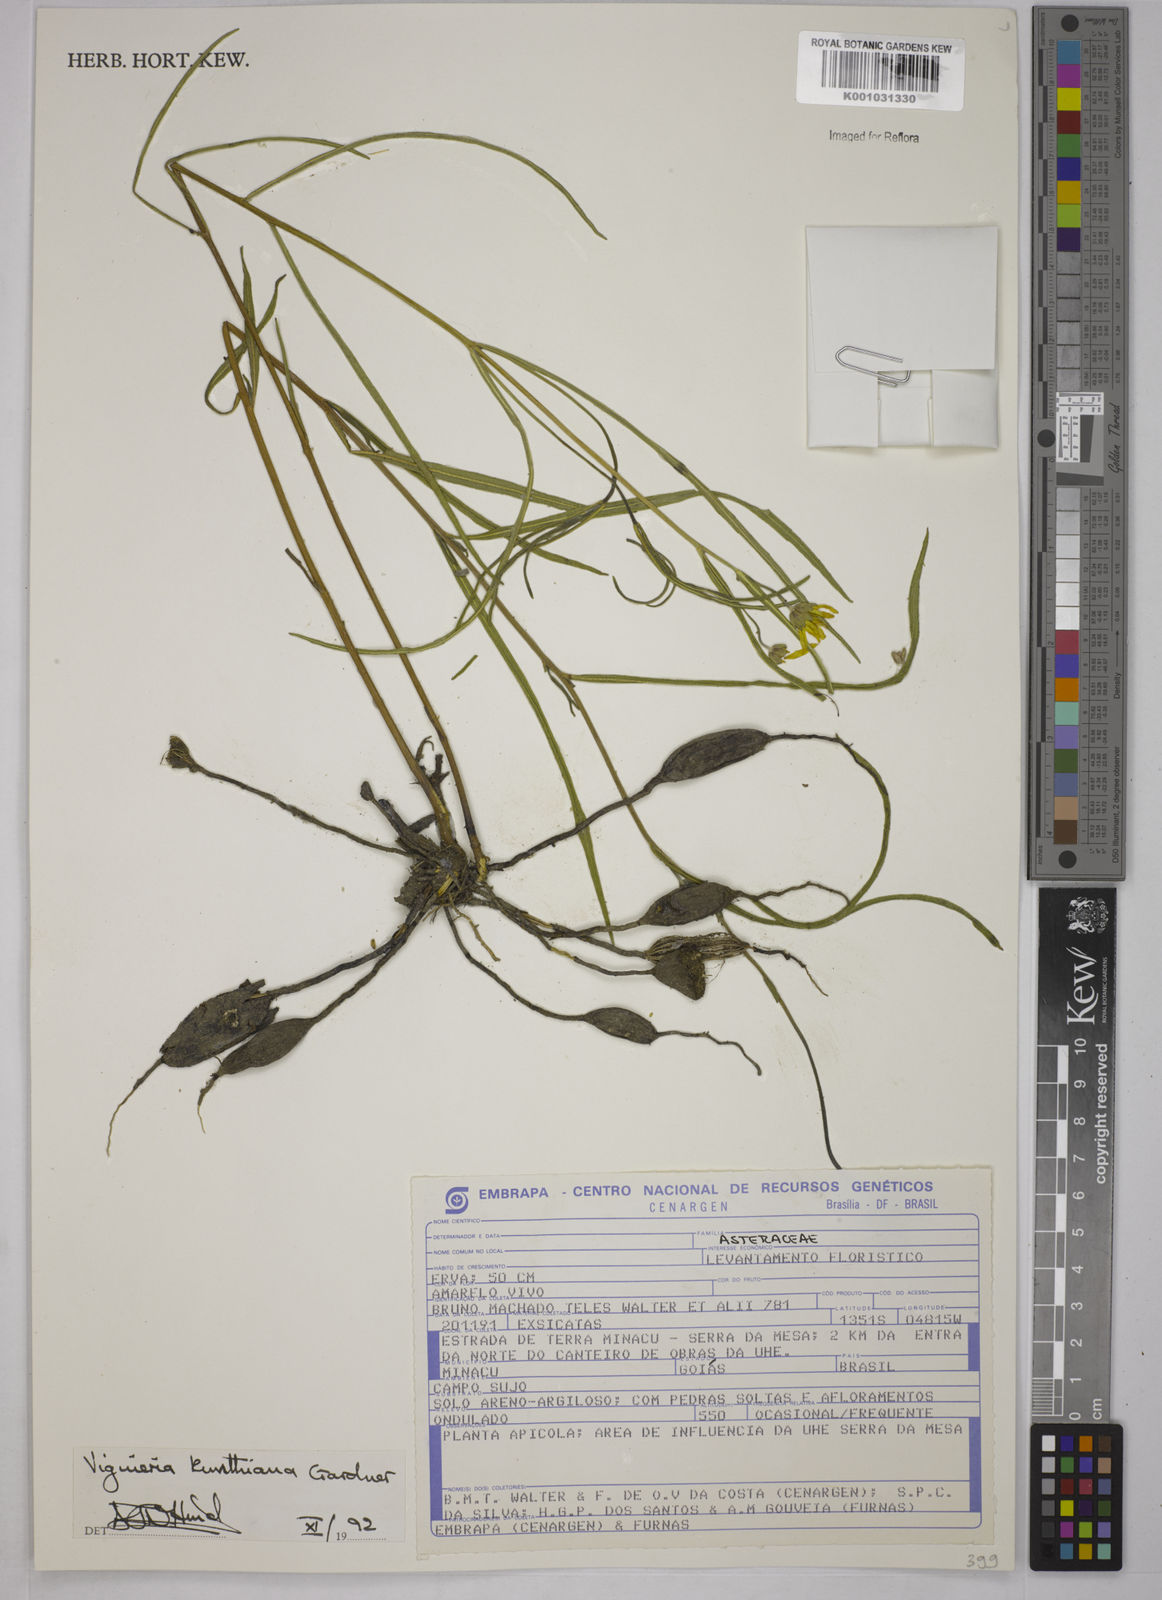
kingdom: Plantae
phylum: Tracheophyta
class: Magnoliopsida
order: Asterales
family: Asteraceae
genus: Aldama
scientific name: Aldama kunthiana
